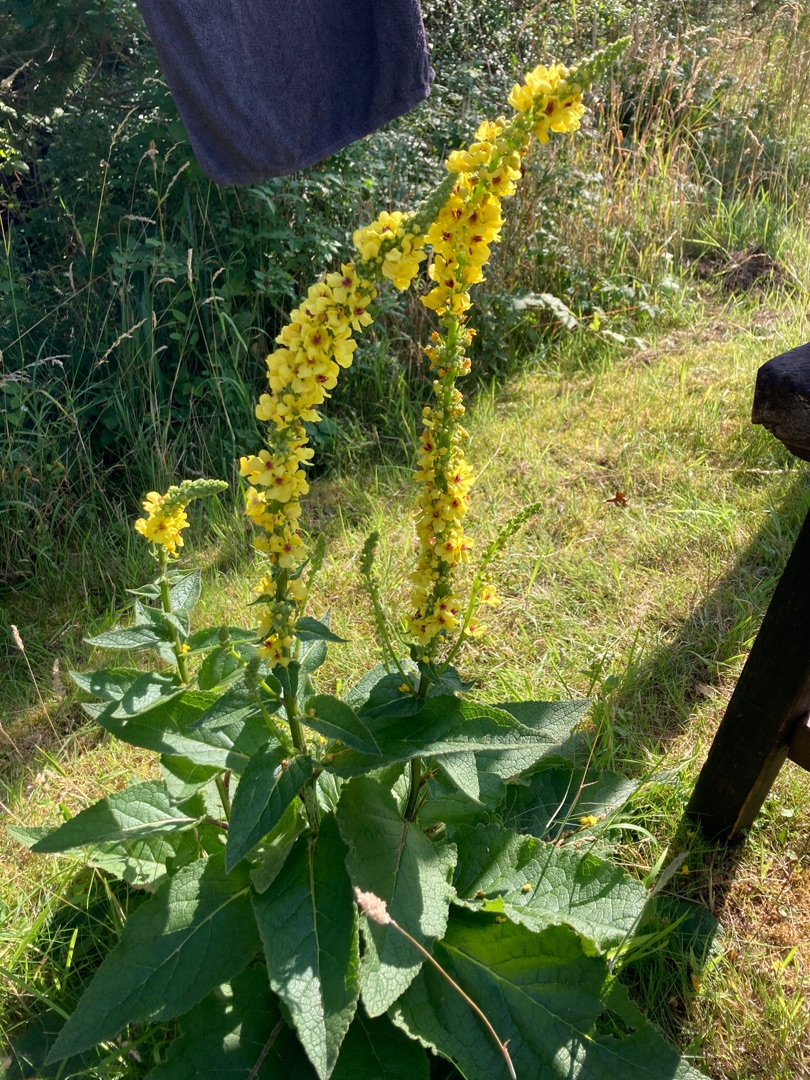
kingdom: Plantae
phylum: Tracheophyta
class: Magnoliopsida
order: Lamiales
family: Scrophulariaceae
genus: Verbascum
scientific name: Verbascum nigrum
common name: Mørk kongelys
